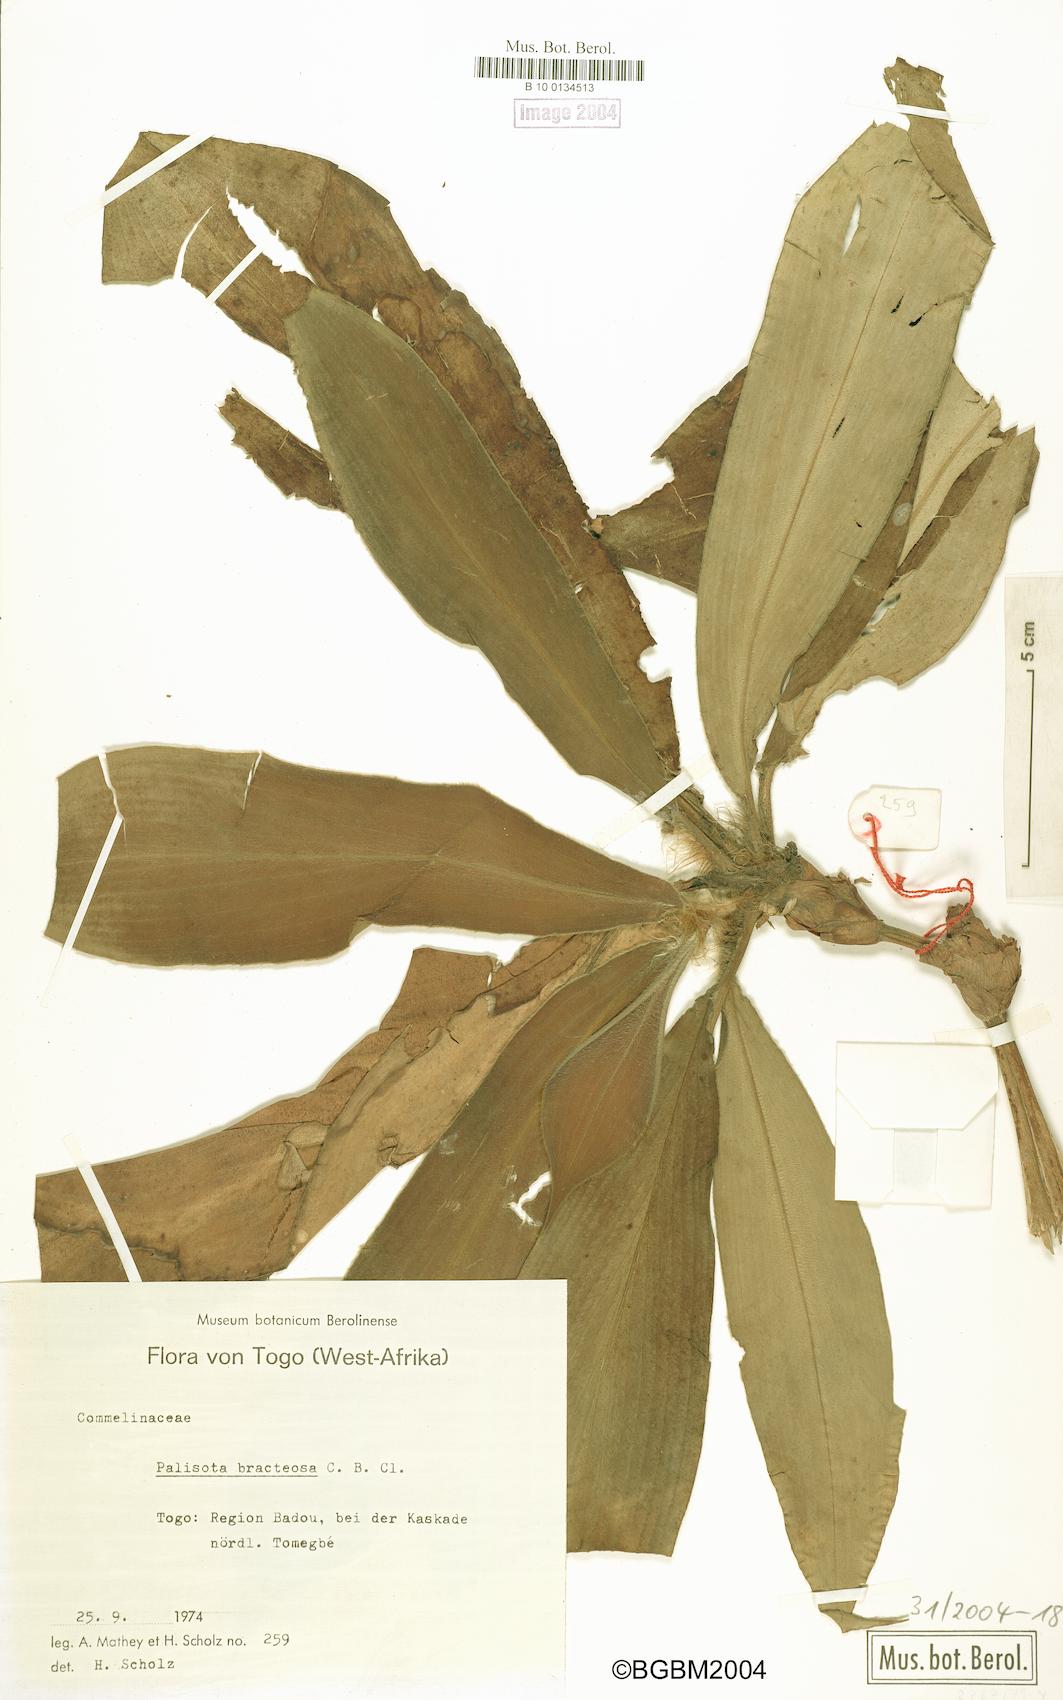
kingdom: Plantae
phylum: Tracheophyta
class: Liliopsida
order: Commelinales
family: Commelinaceae
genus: Palisota
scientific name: Palisota bracteosa
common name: Palisota
